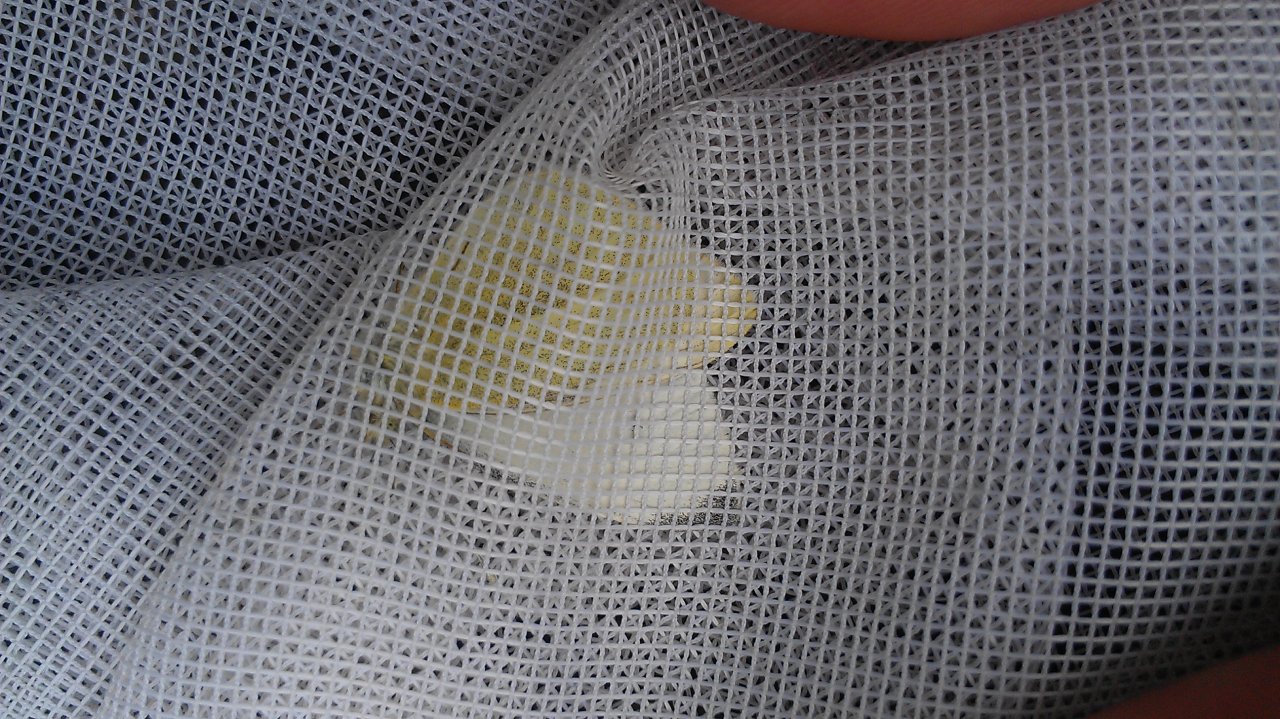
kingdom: Animalia
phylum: Arthropoda
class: Insecta
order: Lepidoptera
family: Pieridae
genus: Pieris
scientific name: Pieris rapae
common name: Cabbage White
